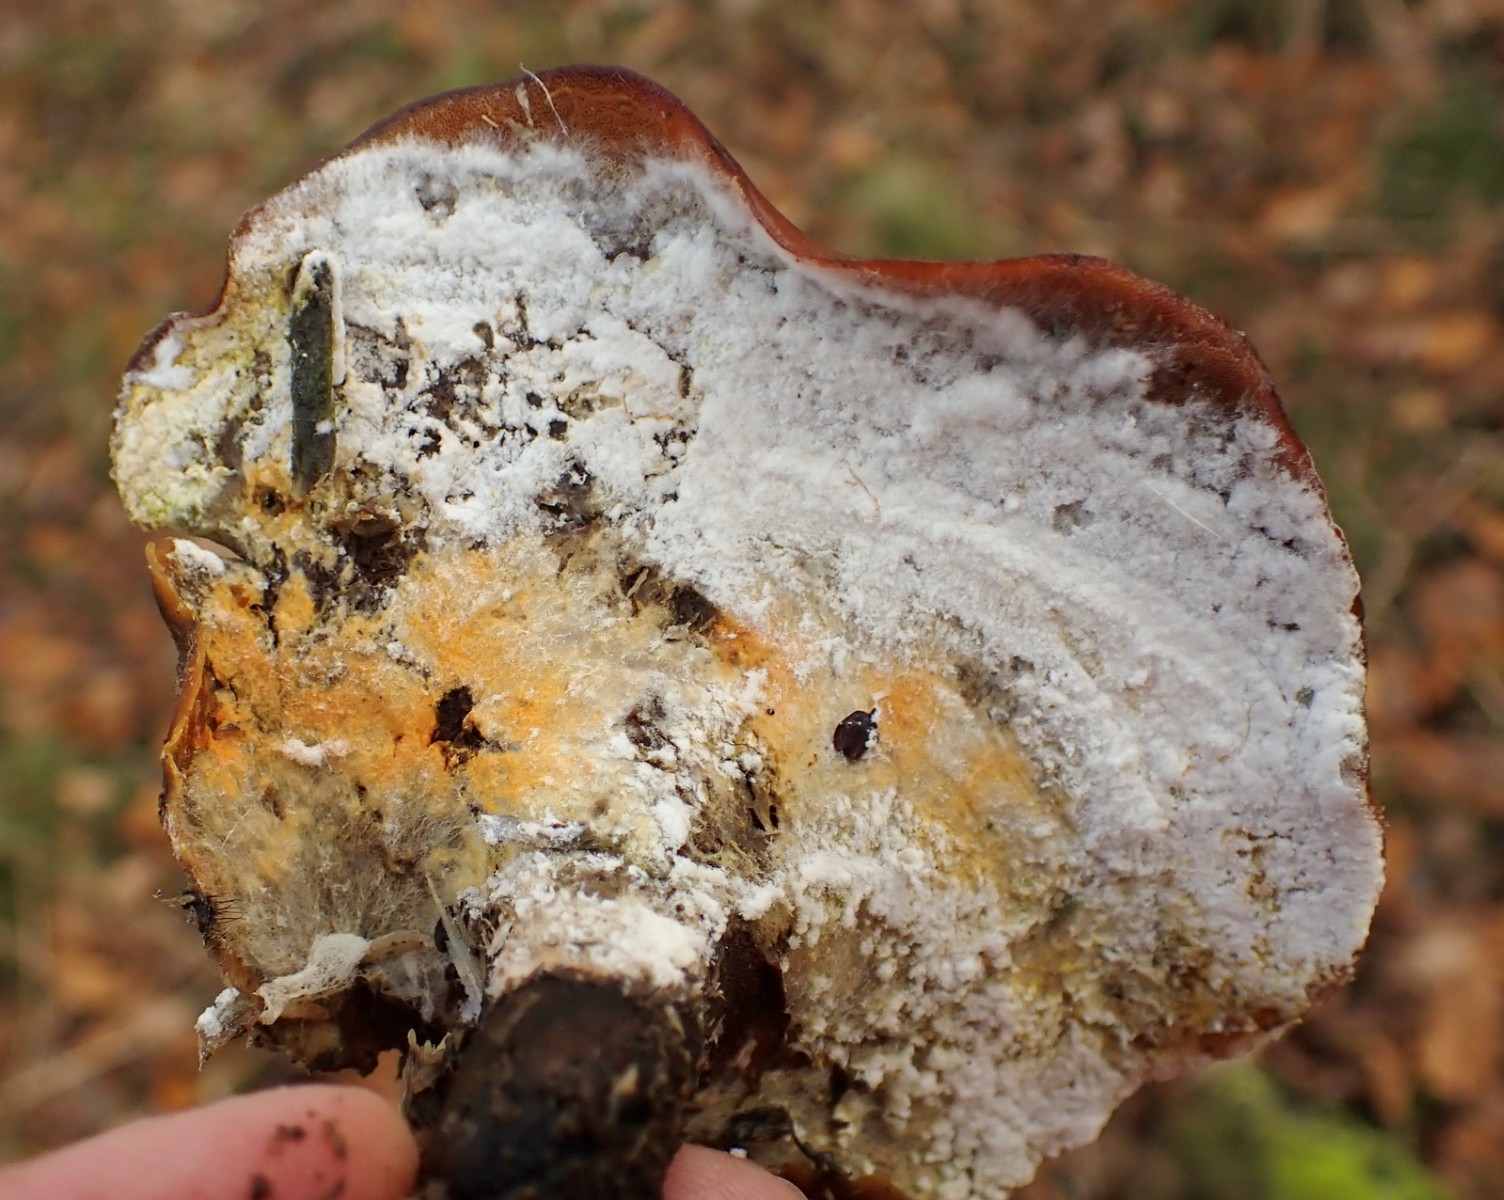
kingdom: Fungi
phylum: Basidiomycota
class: Agaricomycetes
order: Polyporales
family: Polyporaceae
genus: Picipes
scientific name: Picipes badius
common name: kastaniebrun stilkporesvamp
